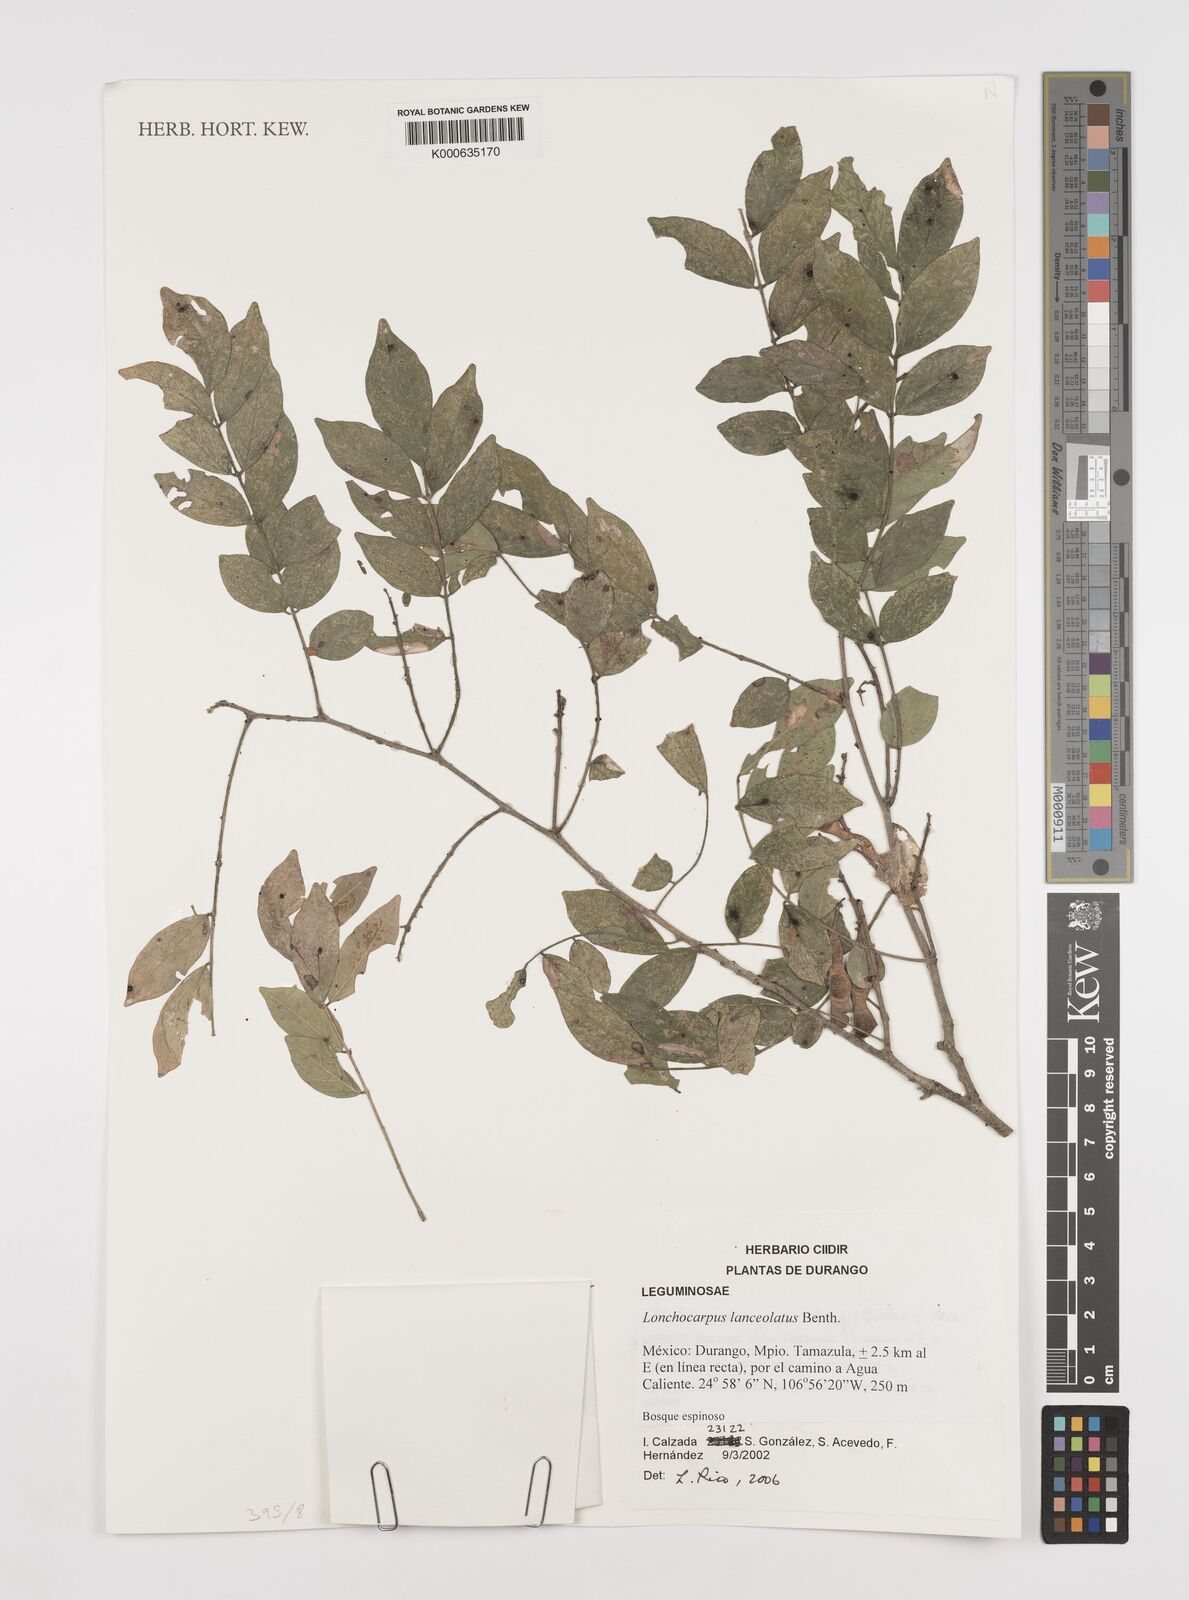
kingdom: Plantae
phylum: Tracheophyta
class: Magnoliopsida
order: Fabales
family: Fabaceae
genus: Lonchocarpus
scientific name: Lonchocarpus lanceolatus
